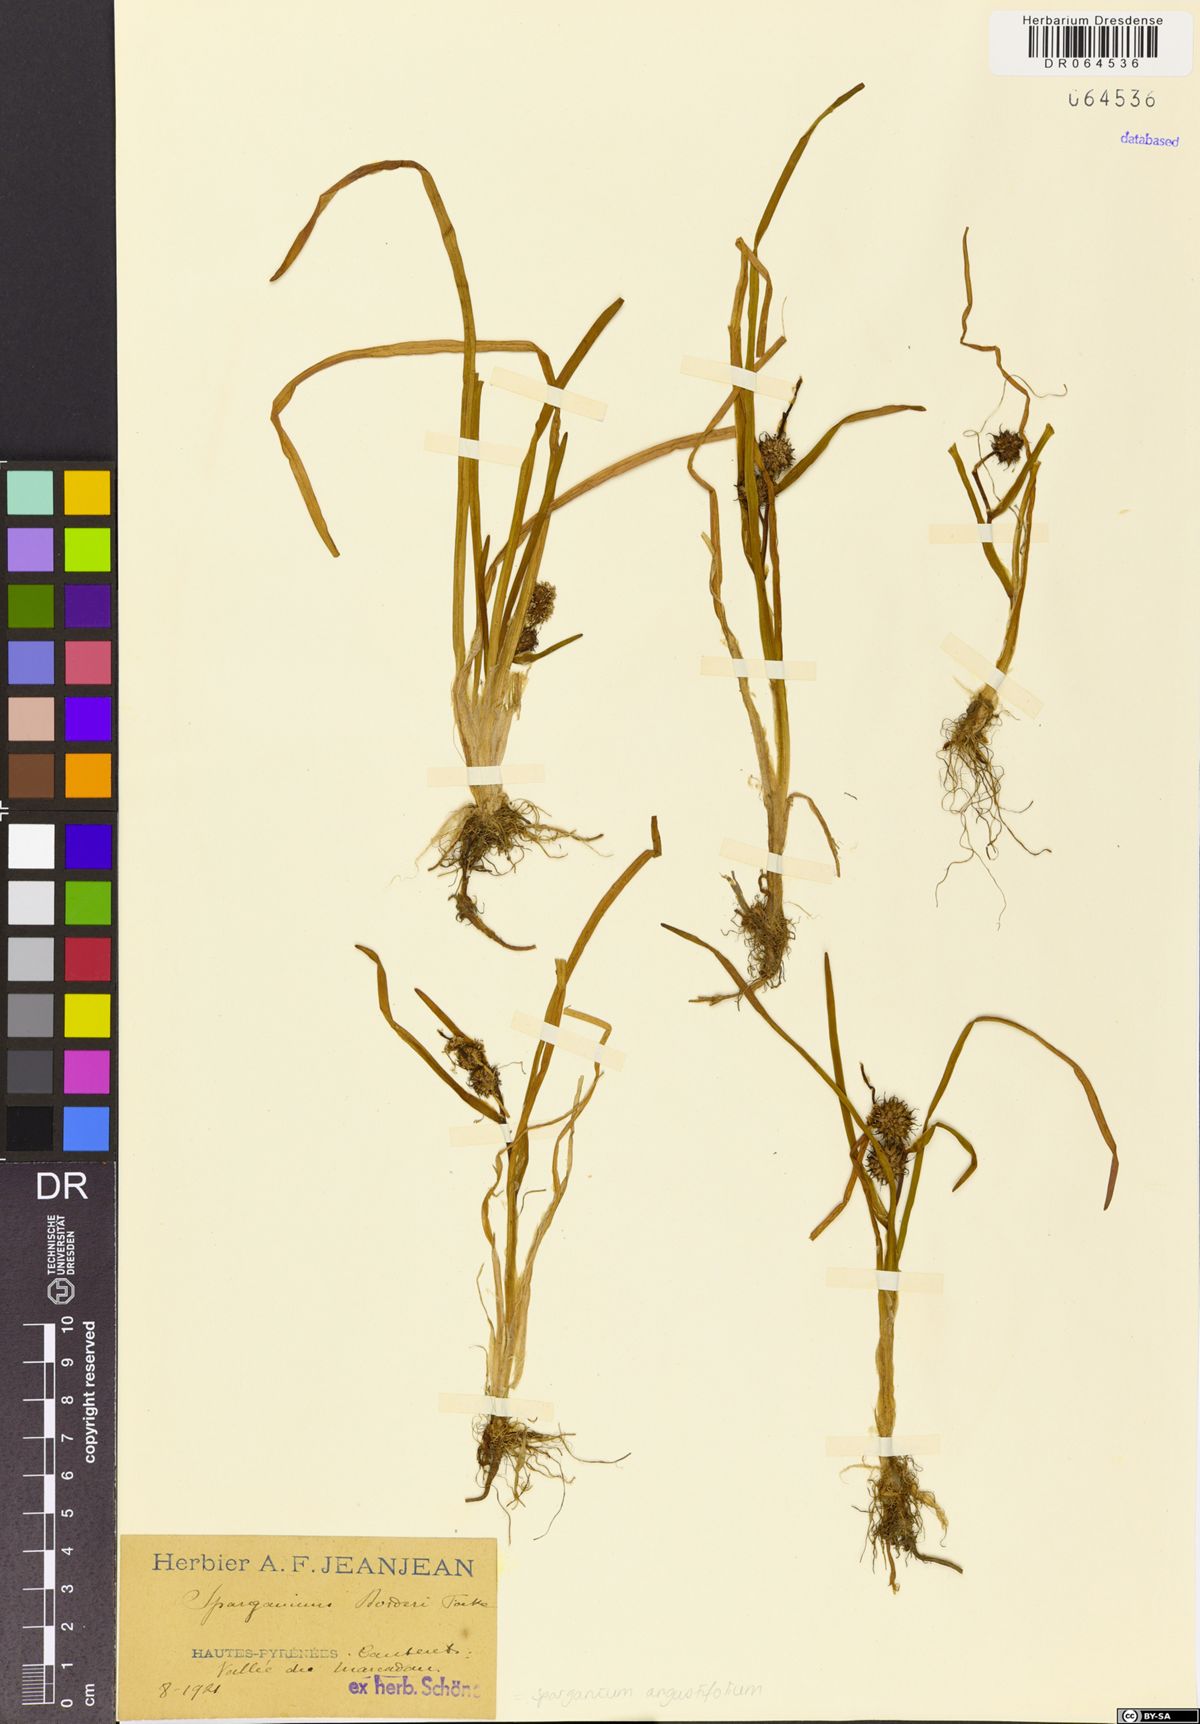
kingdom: Plantae
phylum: Tracheophyta
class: Liliopsida
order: Poales
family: Typhaceae
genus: Sparganium
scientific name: Sparganium angustifolium
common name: Floating bur-reed
